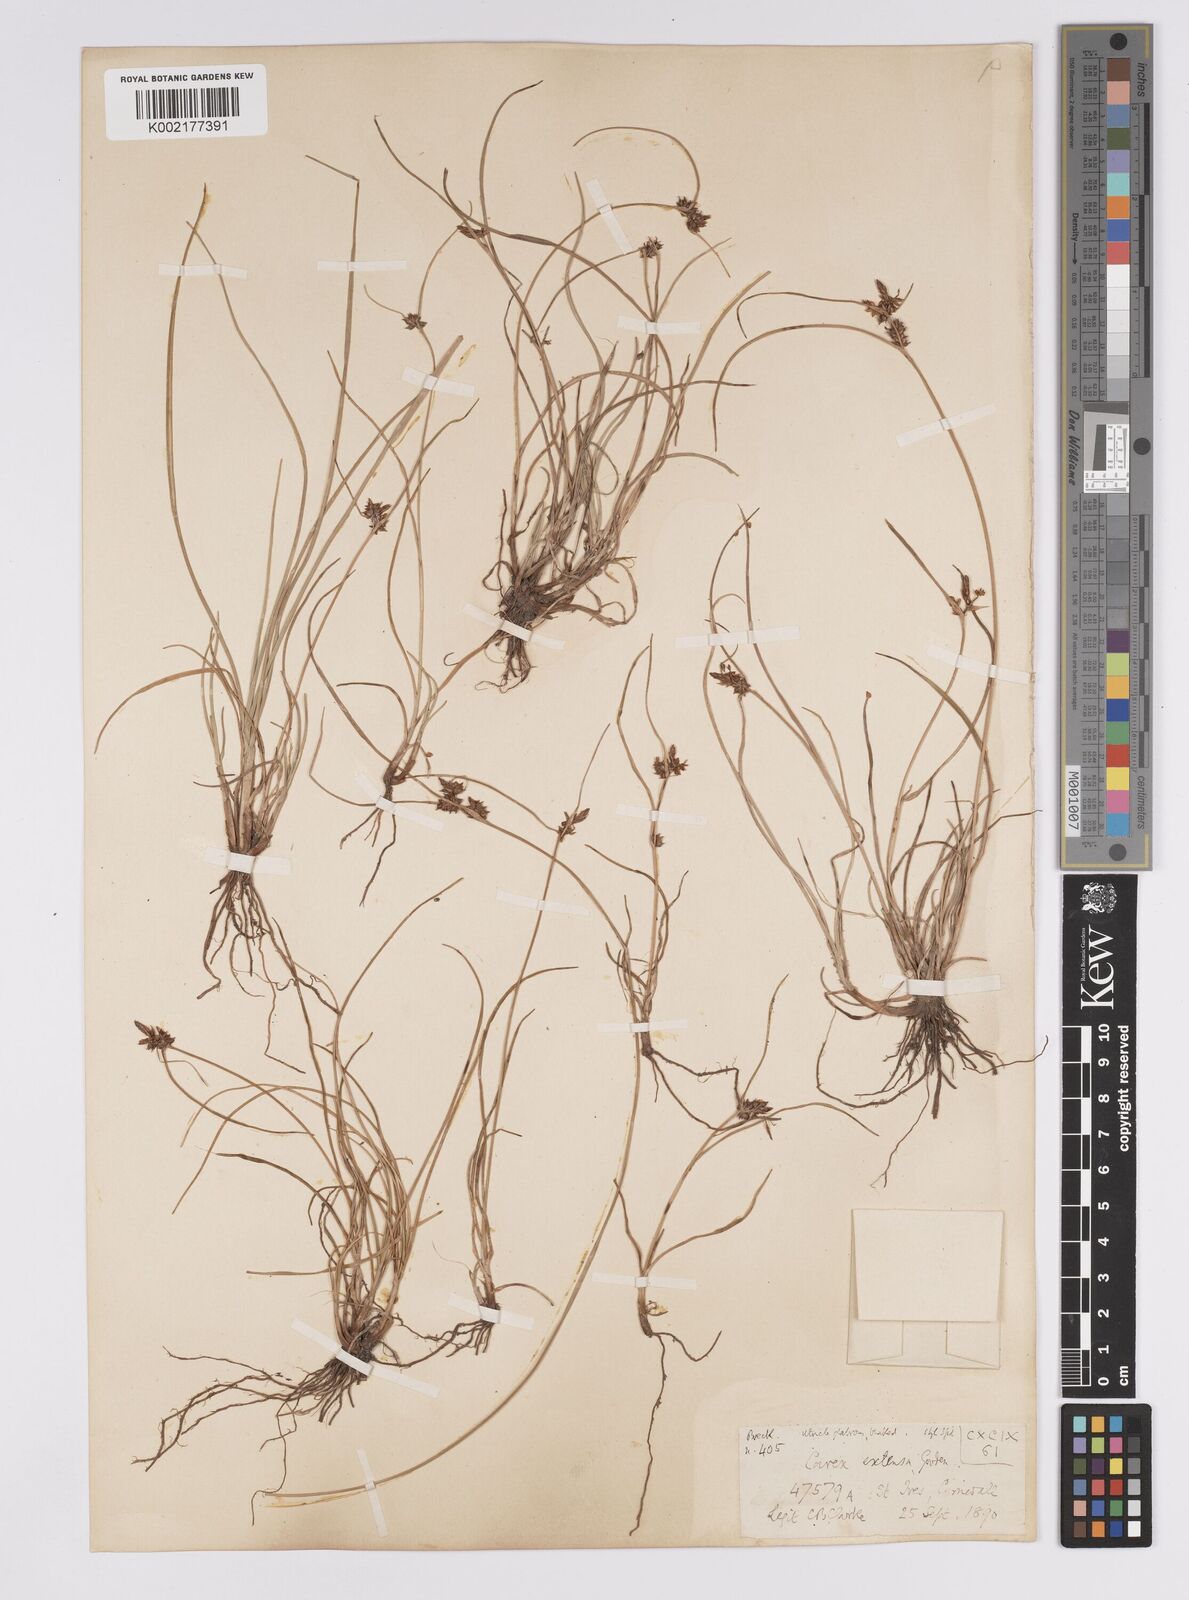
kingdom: Plantae
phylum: Tracheophyta
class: Liliopsida
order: Poales
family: Cyperaceae
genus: Carex
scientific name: Carex extensa
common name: Long-bracted sedge
